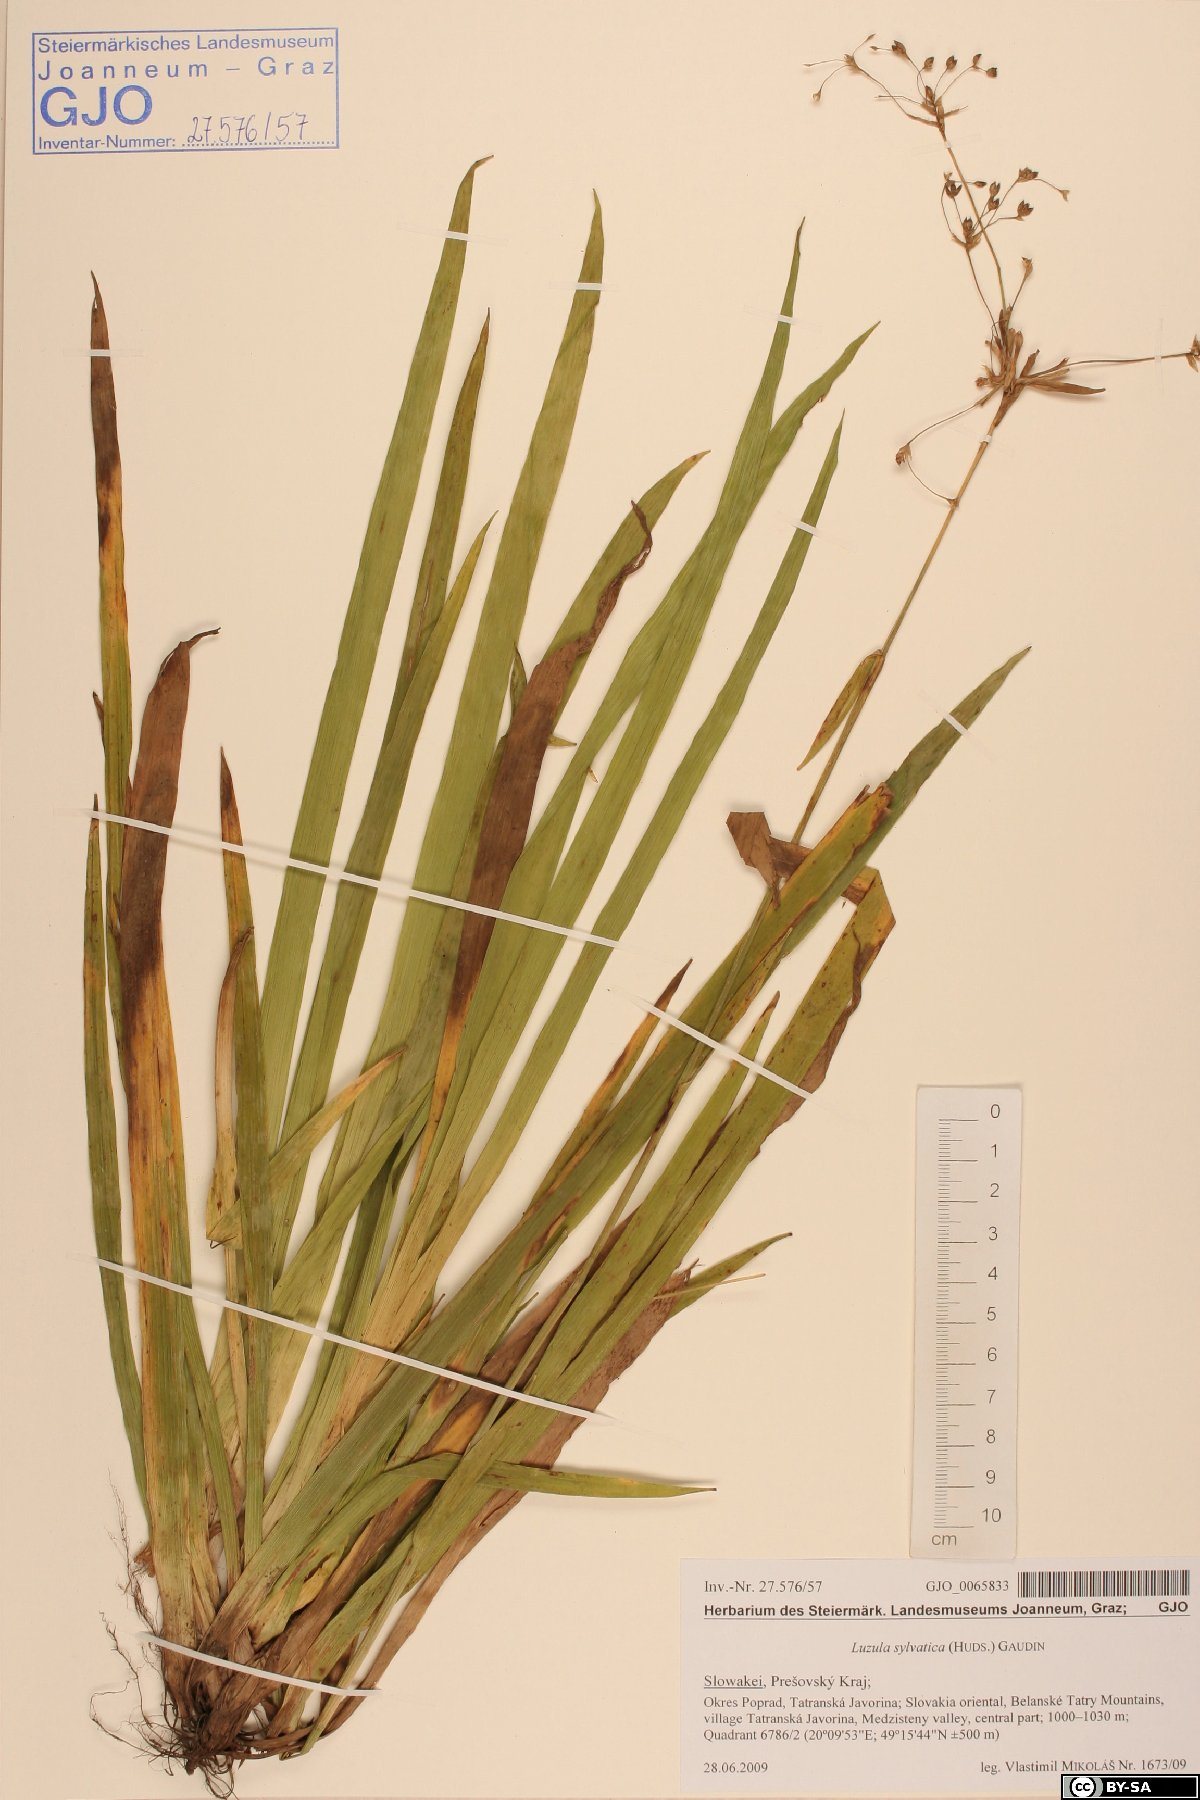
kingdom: Plantae
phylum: Tracheophyta
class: Liliopsida
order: Poales
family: Juncaceae
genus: Luzula
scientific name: Luzula sylvatica
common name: Great wood-rush
